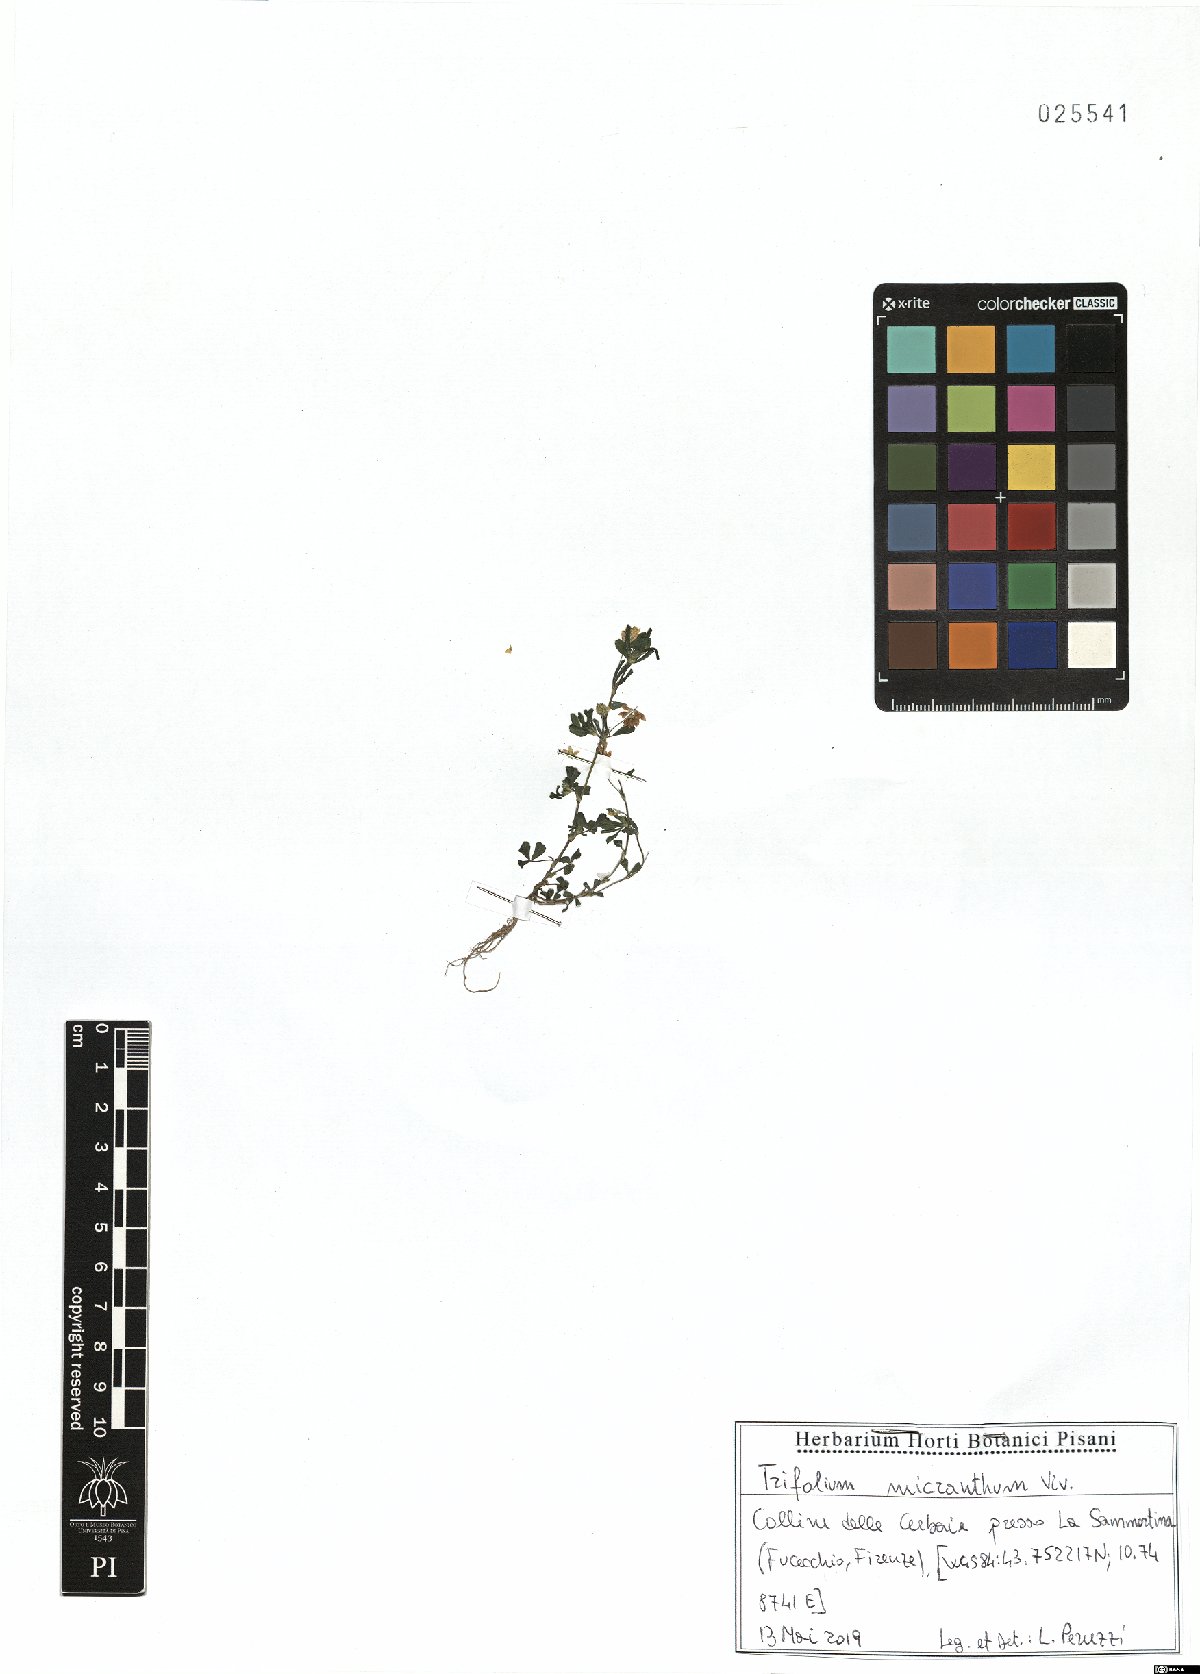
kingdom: Plantae
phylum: Tracheophyta
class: Magnoliopsida
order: Fabales
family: Fabaceae
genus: Trifolium
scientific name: Trifolium micranthum
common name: Slender trefoil
